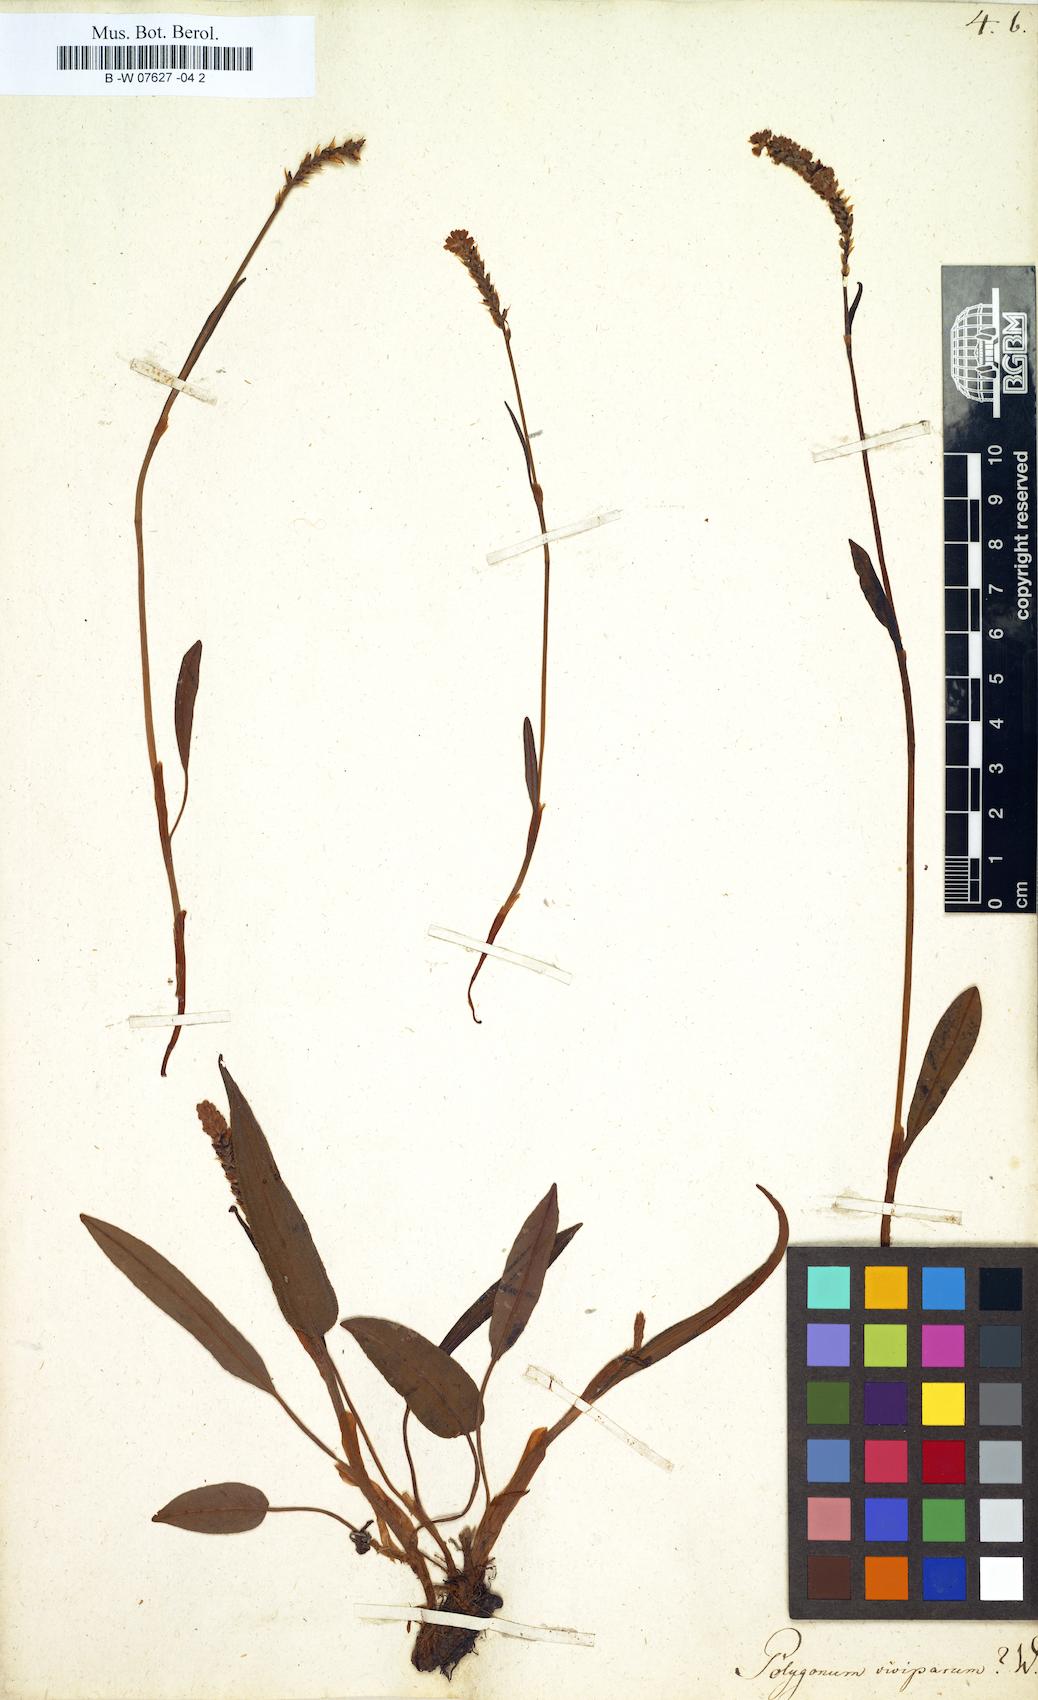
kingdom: Plantae
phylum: Tracheophyta
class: Magnoliopsida
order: Caryophyllales
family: Polygonaceae
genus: Bistorta
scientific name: Bistorta vivipara
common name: Alpine bistort
